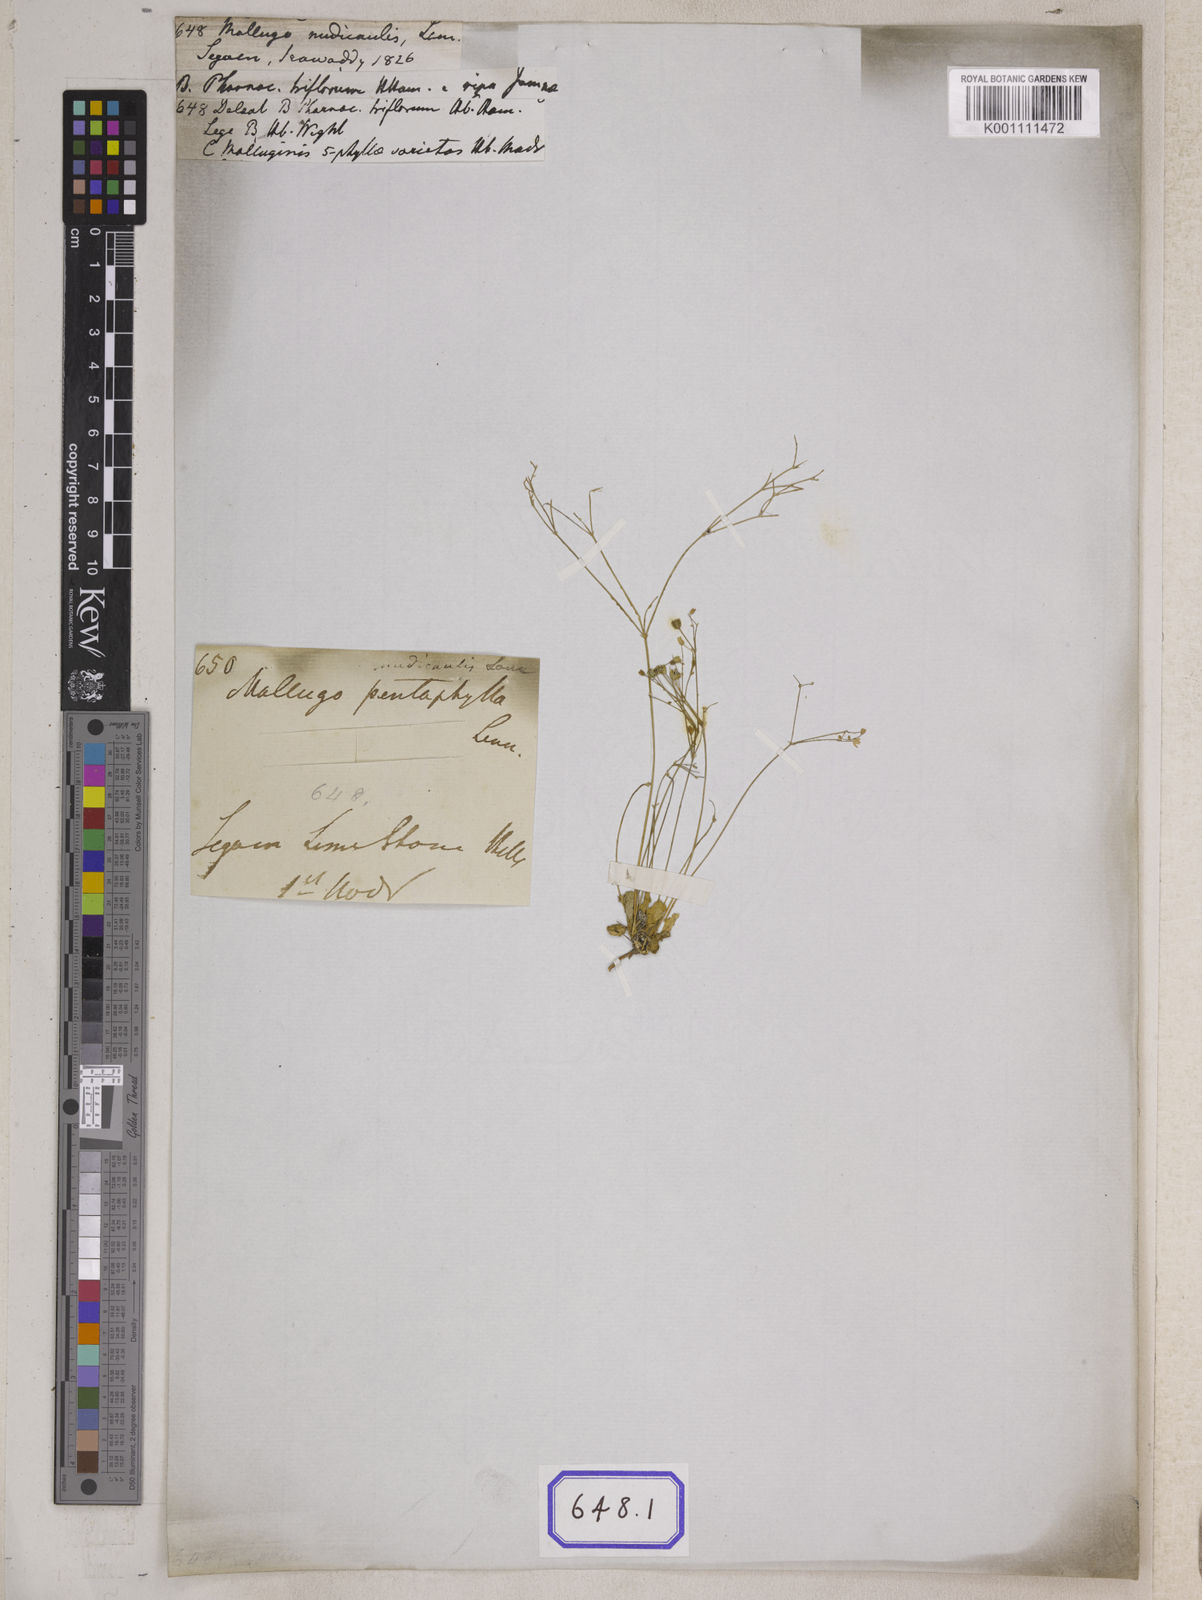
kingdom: Plantae
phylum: Tracheophyta
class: Magnoliopsida
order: Caryophyllales
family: Molluginaceae
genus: Paramollugo
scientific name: Paramollugo nudicaulis
